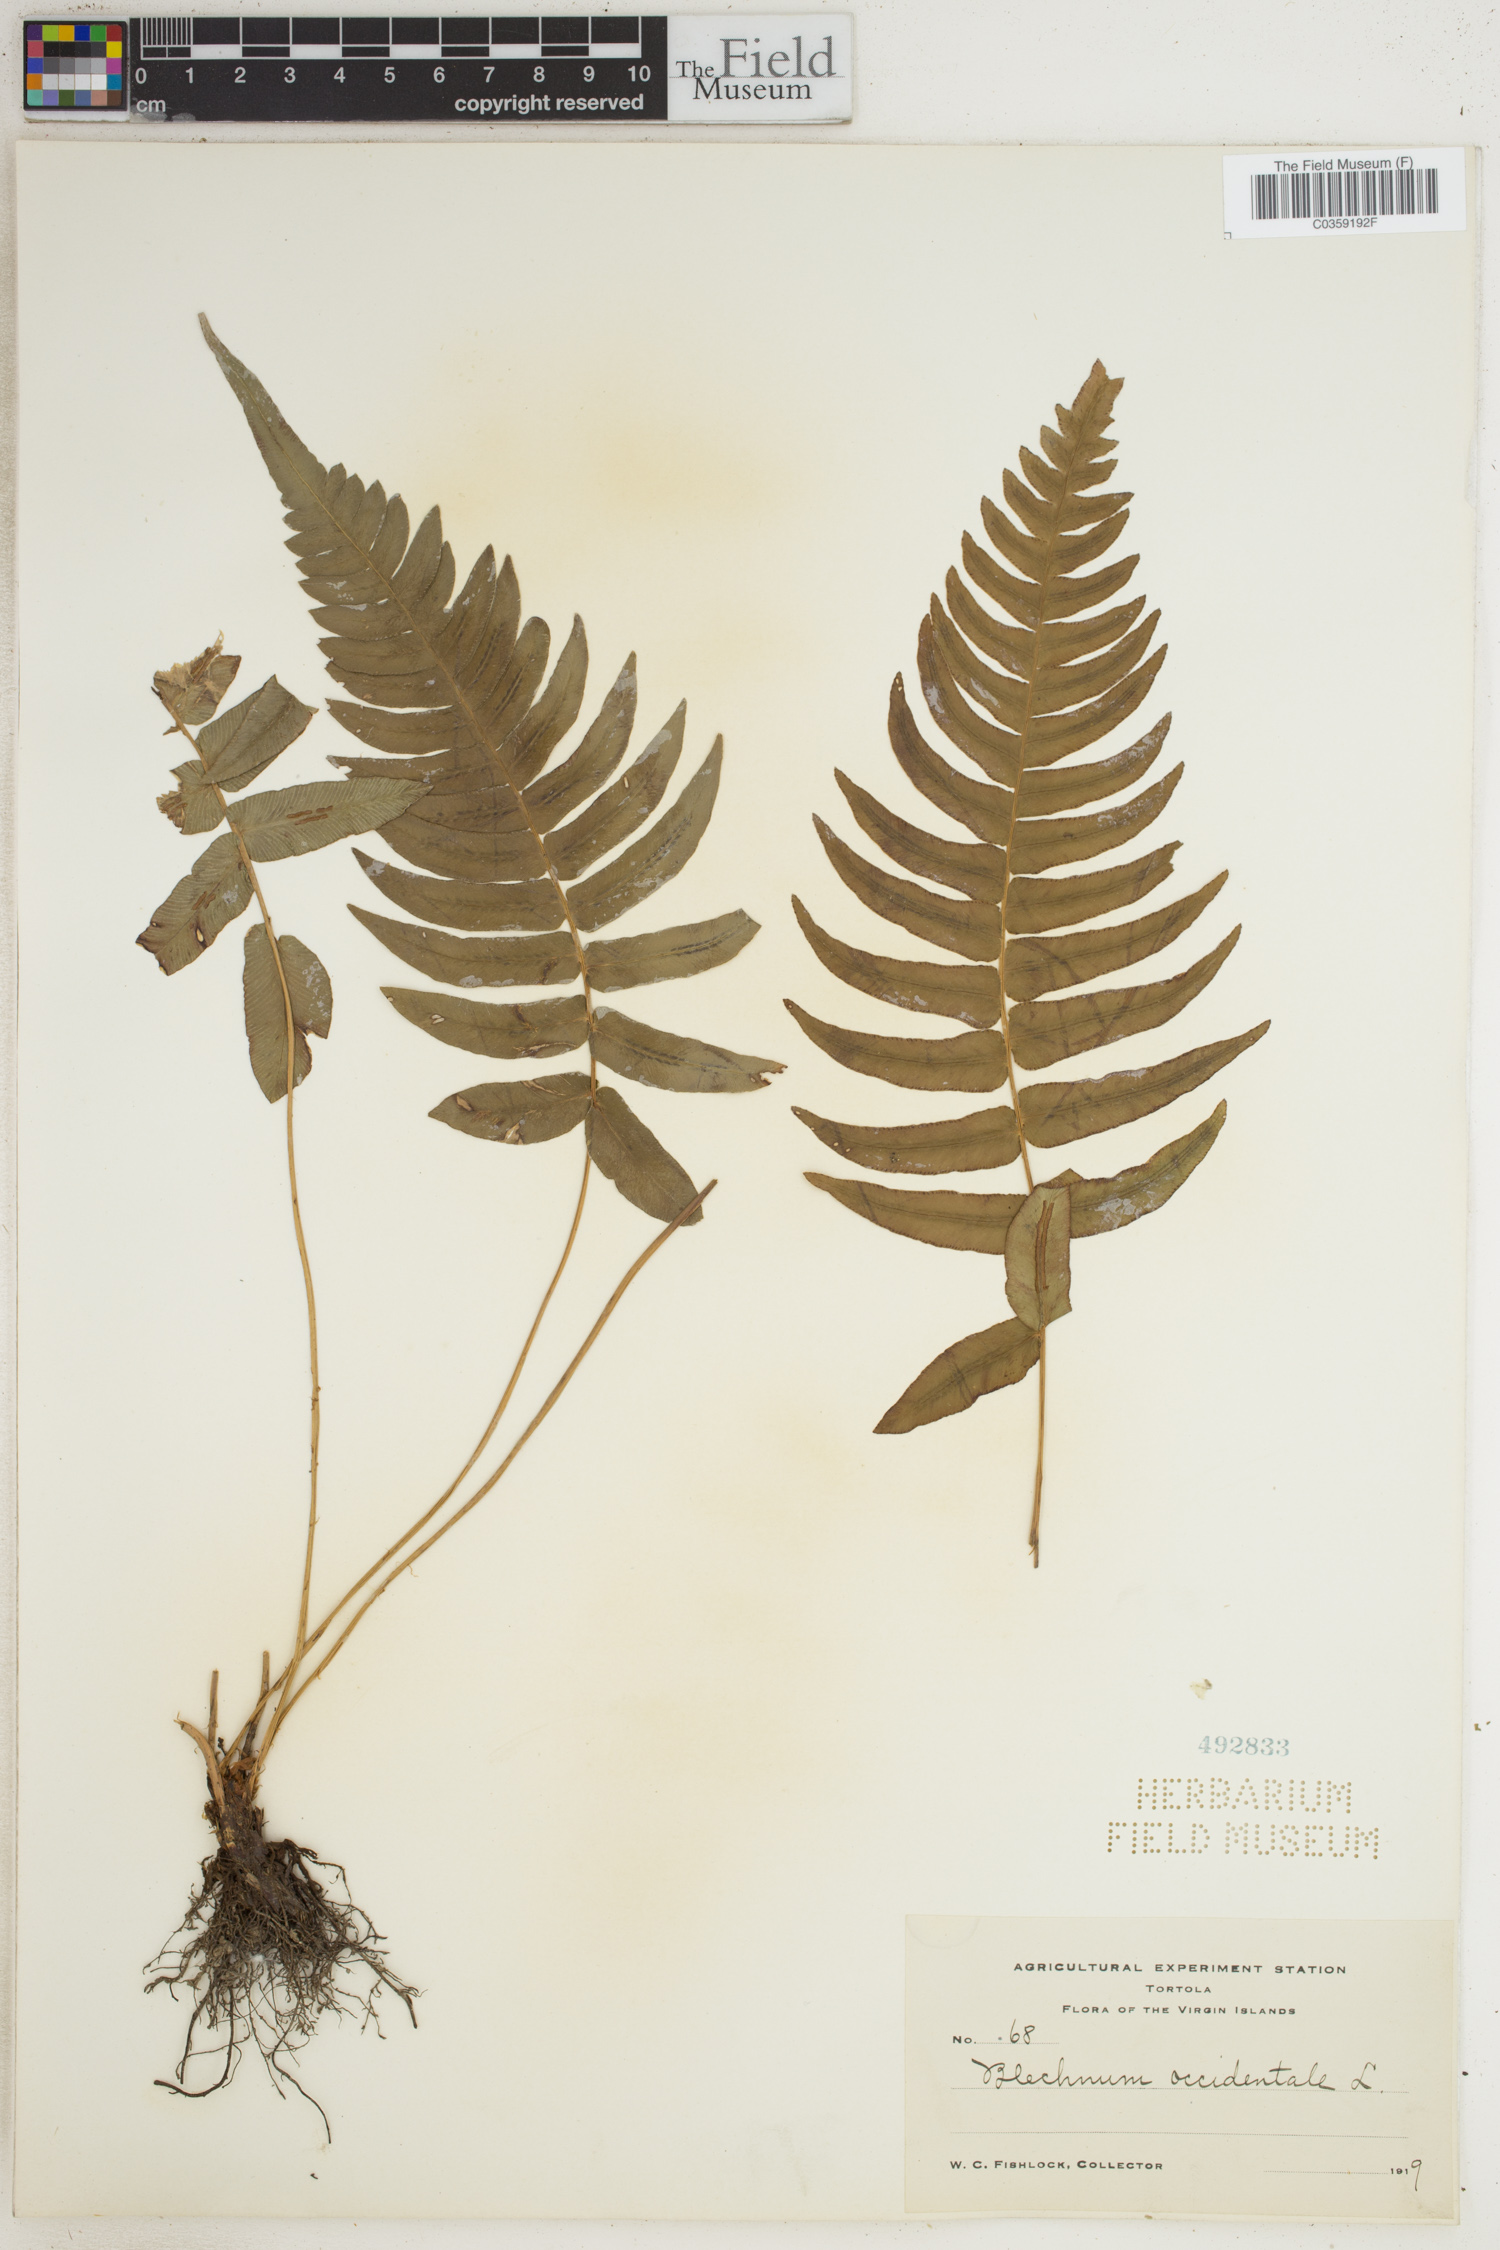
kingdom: Plantae
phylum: Tracheophyta
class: Polypodiopsida
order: Polypodiales
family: Blechnaceae
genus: Blechnum
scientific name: Blechnum occidentale
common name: Hammock fern
